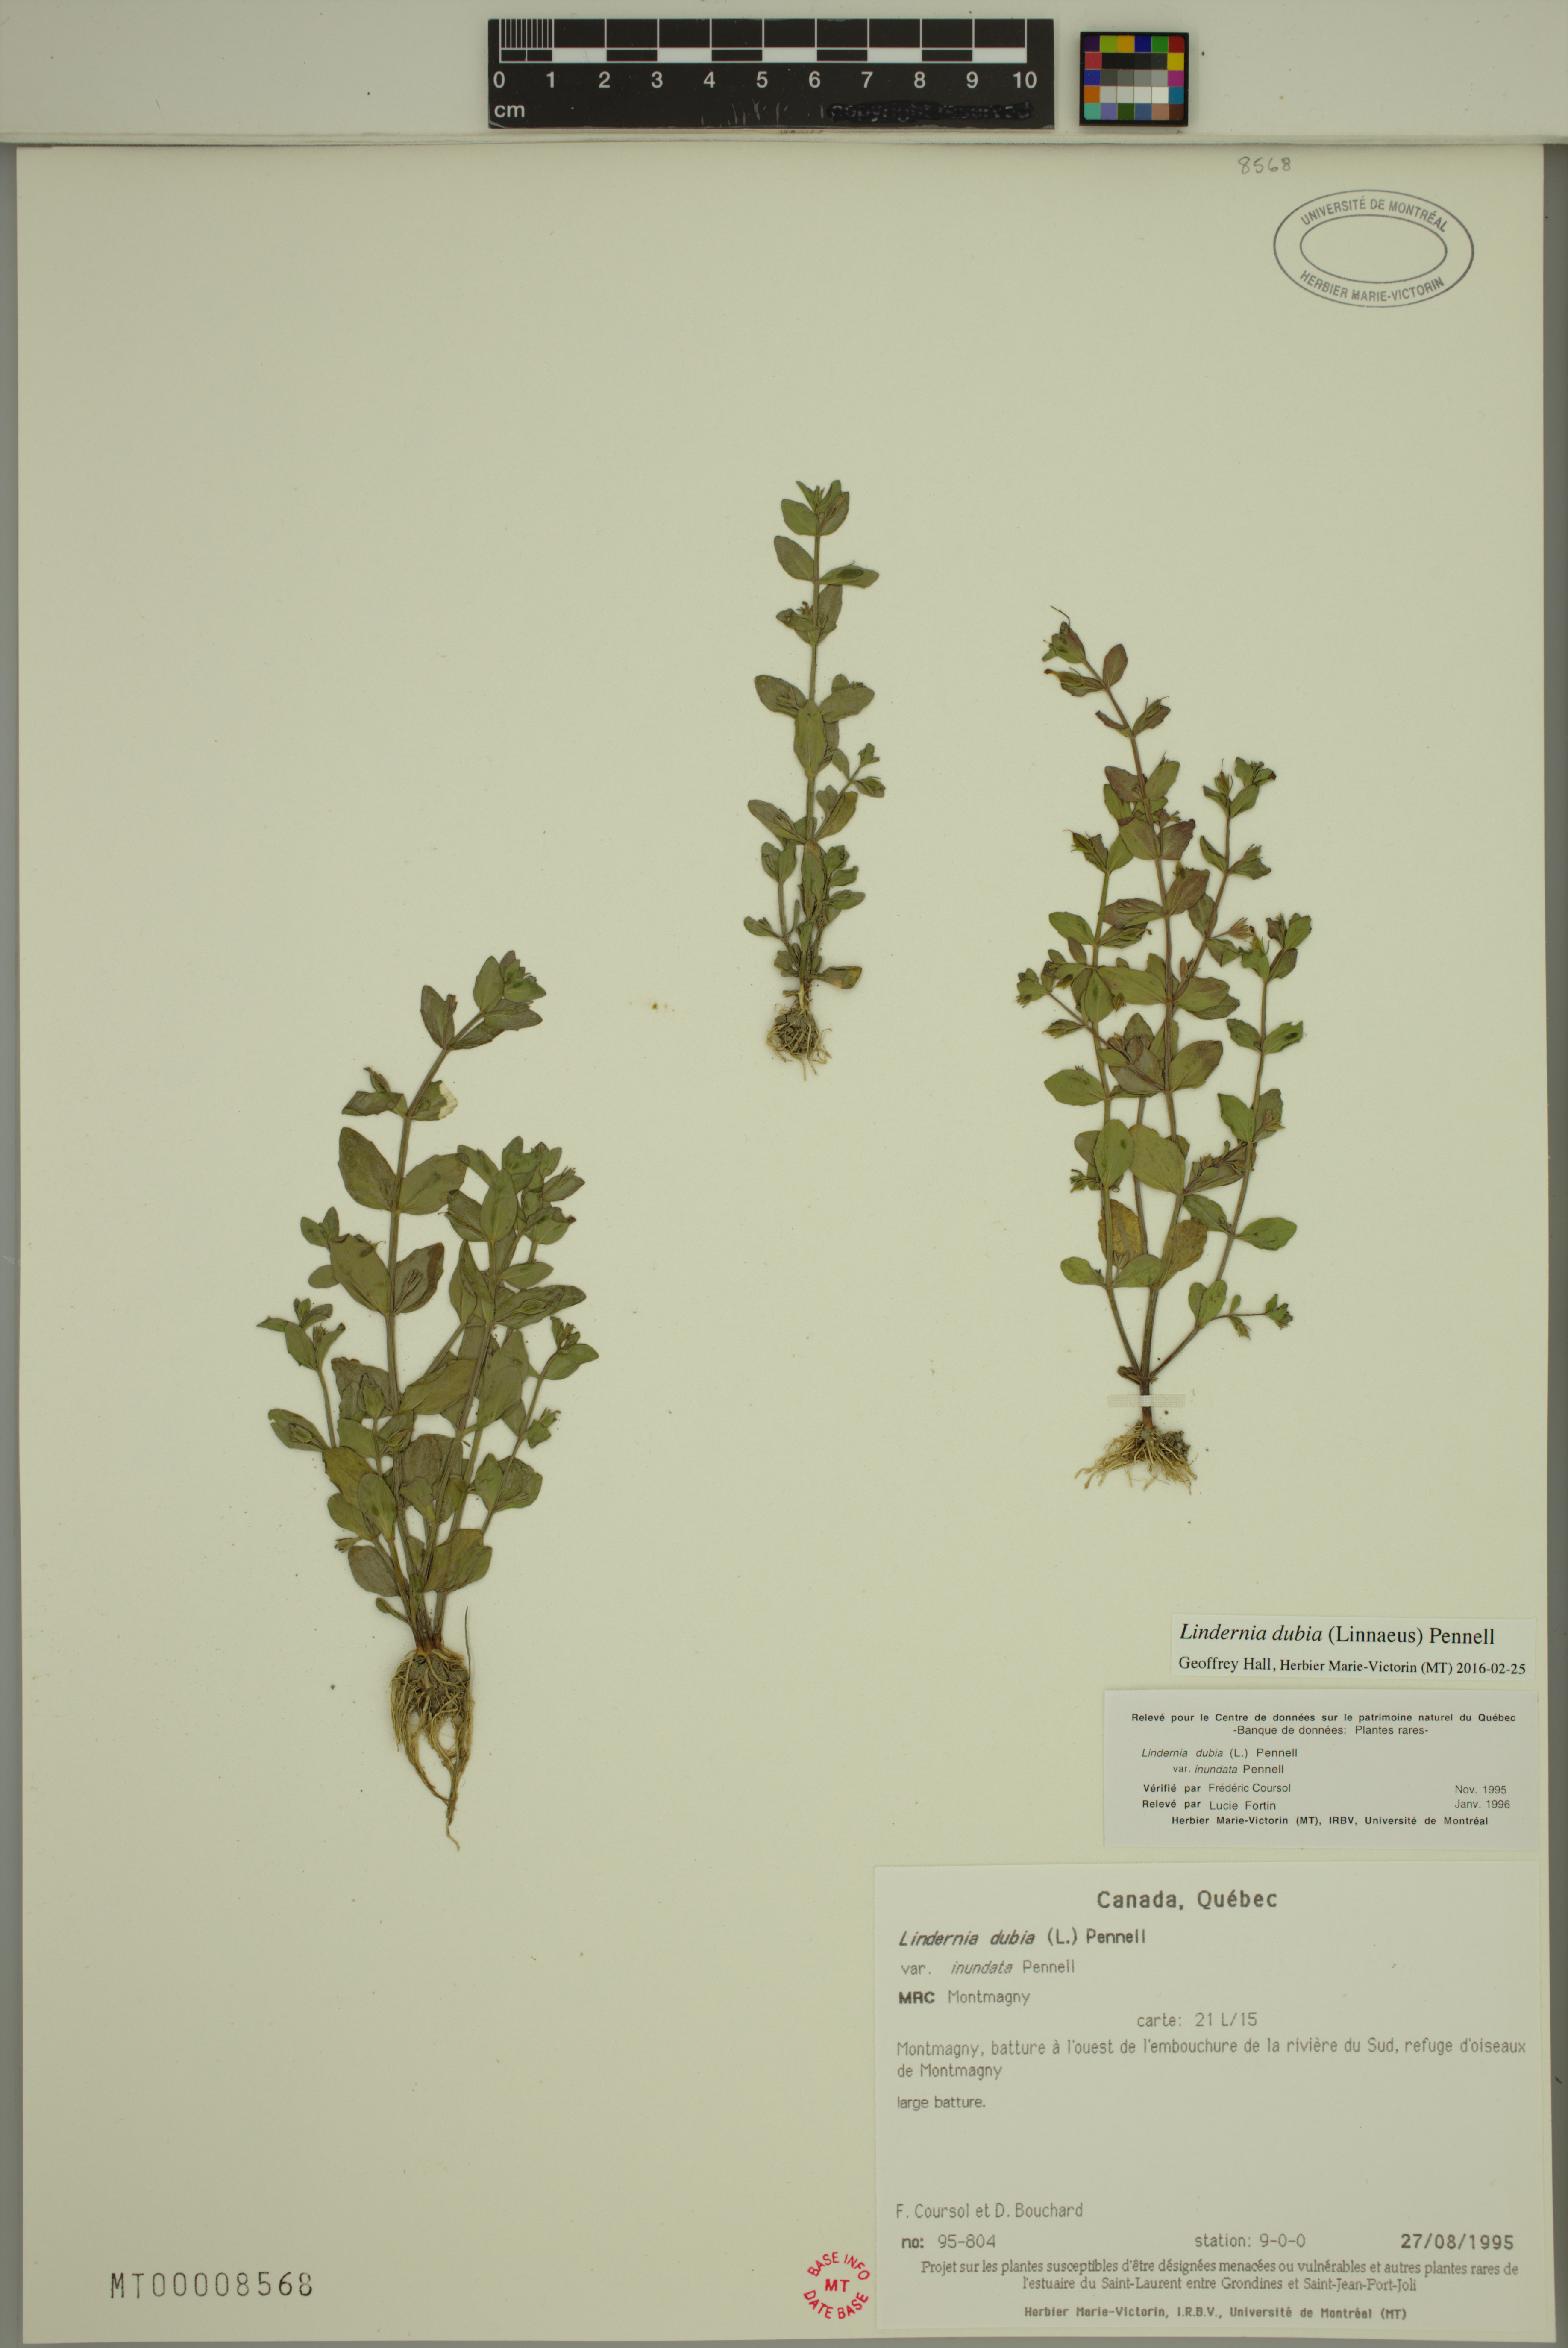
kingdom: Plantae
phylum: Tracheophyta
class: Magnoliopsida
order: Lamiales
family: Linderniaceae
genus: Lindernia
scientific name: Lindernia dubia
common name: Annual false pimpernel
